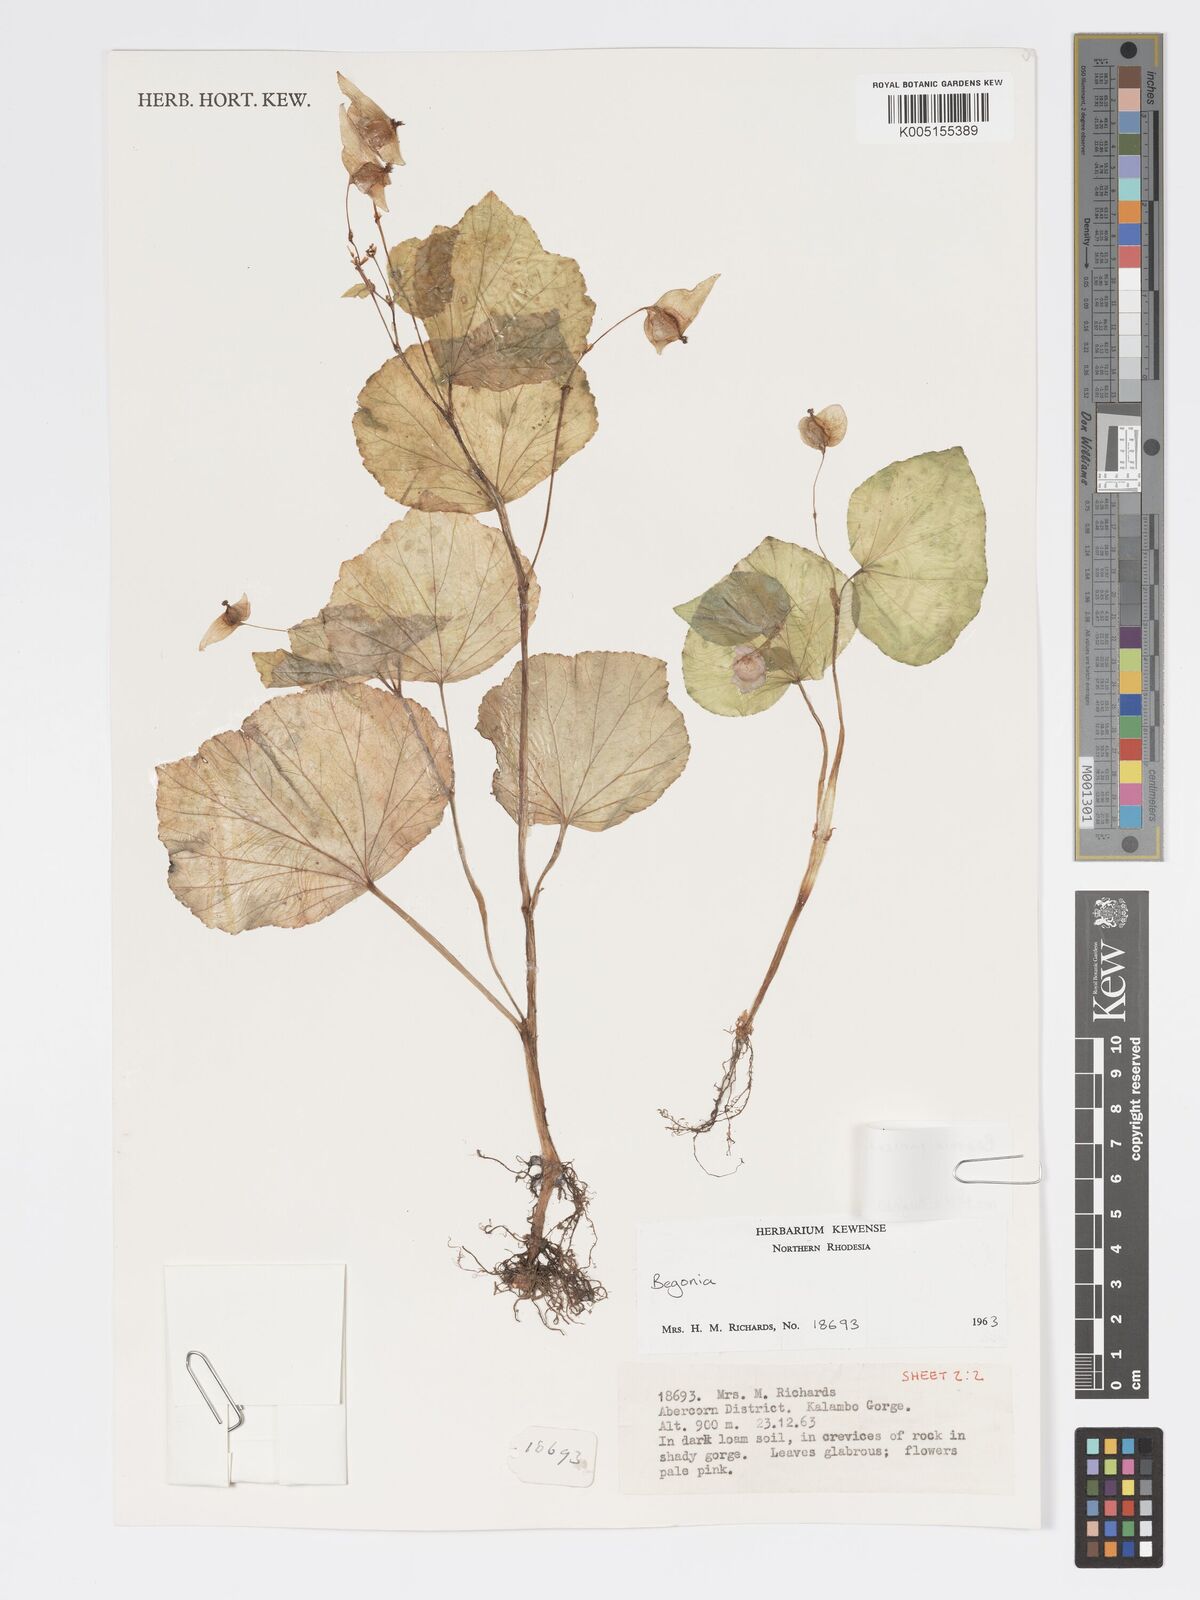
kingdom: Plantae
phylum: Tracheophyta
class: Magnoliopsida
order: Cucurbitales
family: Begoniaceae
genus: Begonia
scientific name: Begonia
